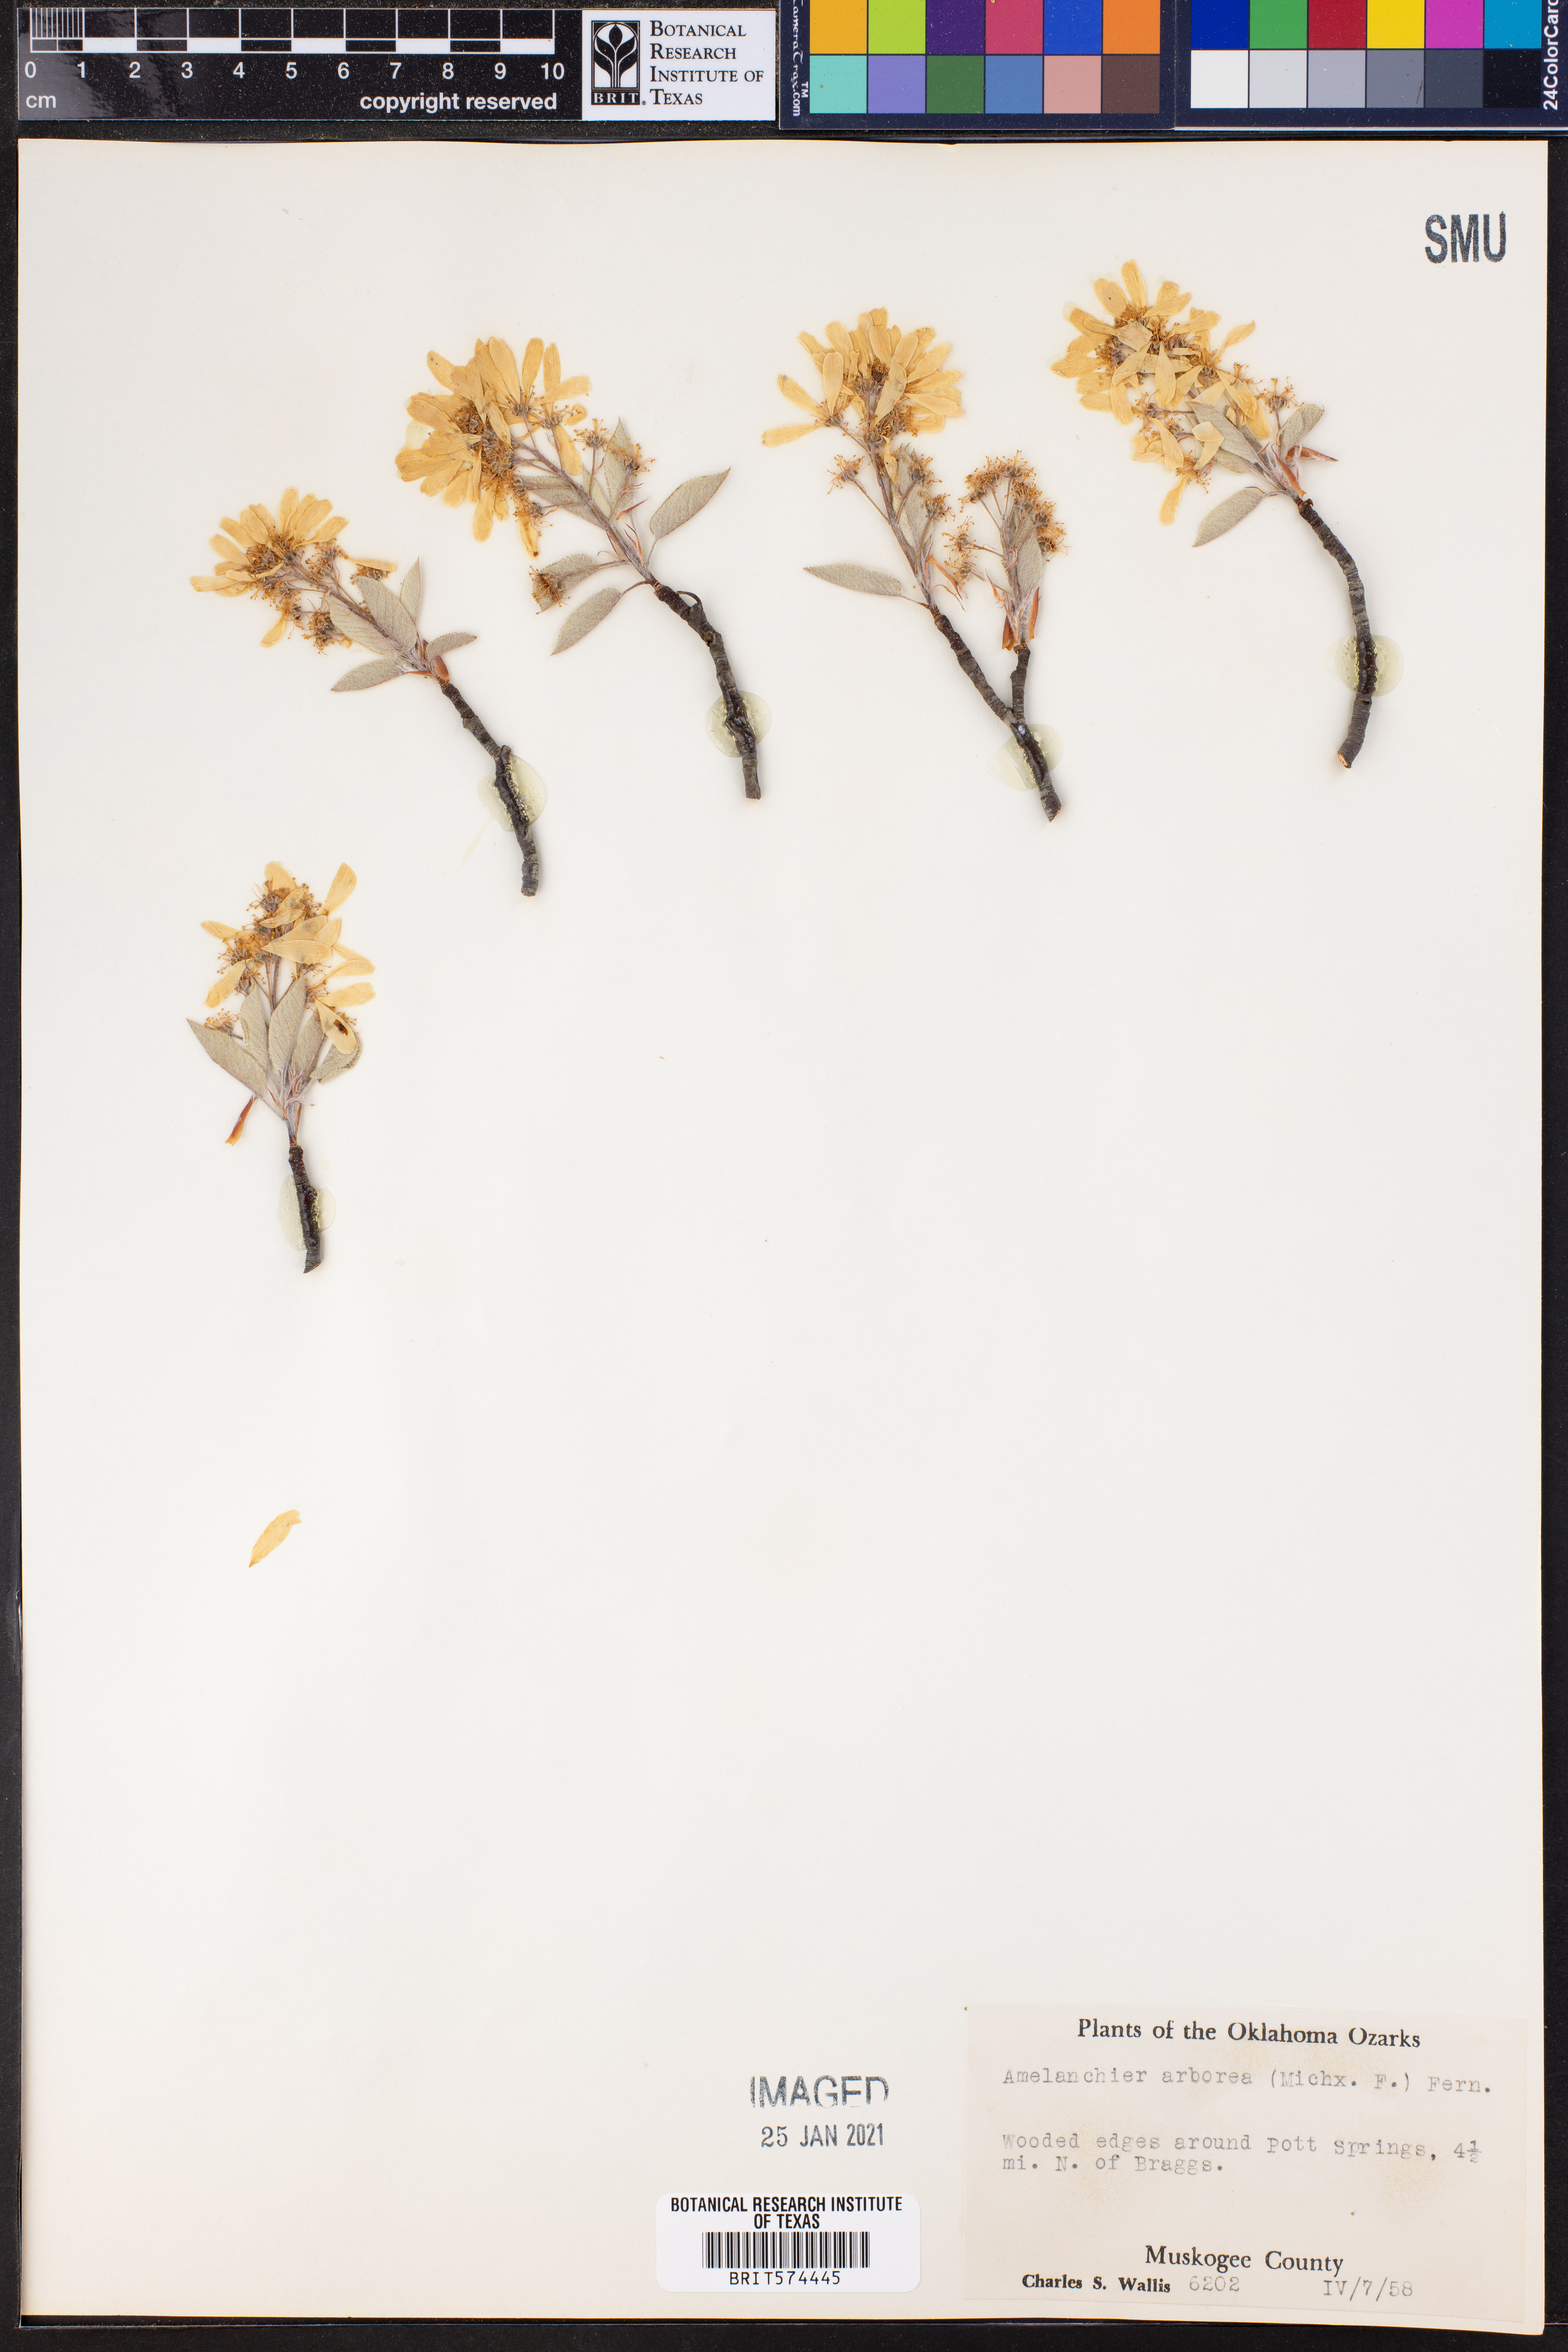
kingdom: Plantae
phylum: Tracheophyta
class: Magnoliopsida
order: Rosales
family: Rosaceae
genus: Amelanchier
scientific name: Amelanchier arborea
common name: Downy serviceberry
